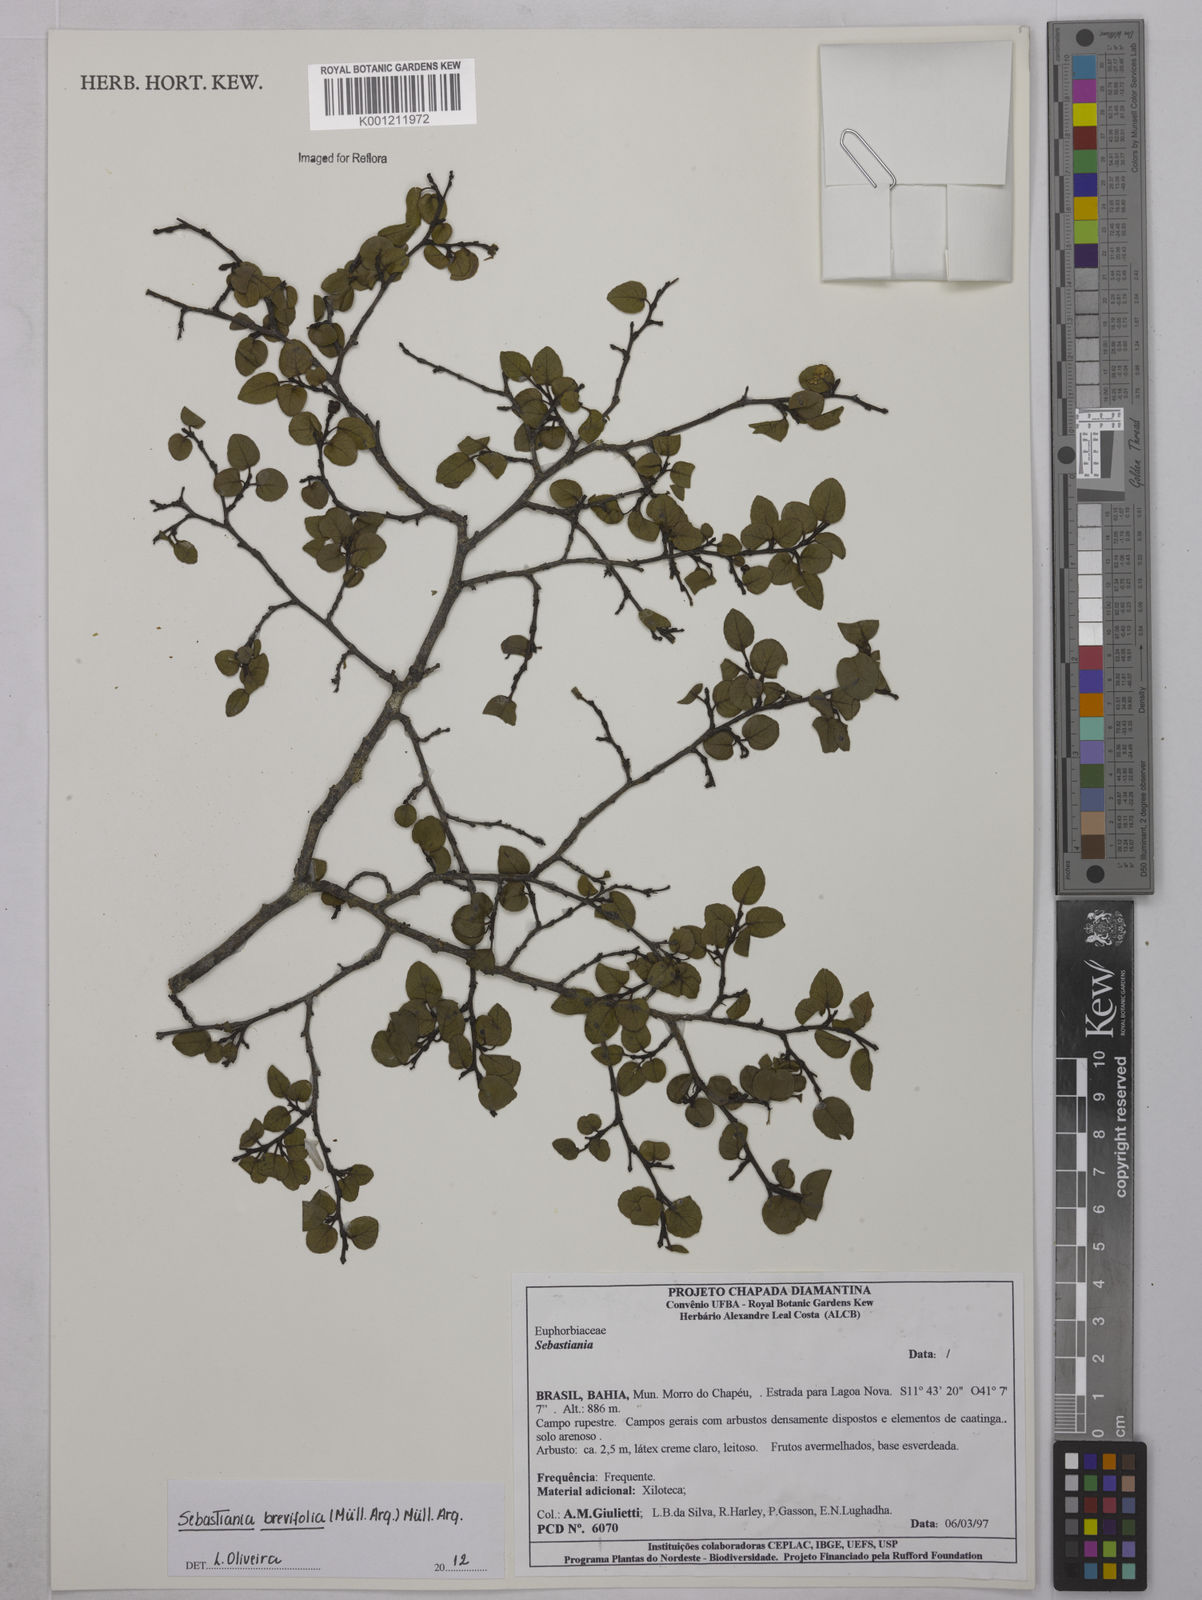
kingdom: Plantae
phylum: Tracheophyta
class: Magnoliopsida
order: Malpighiales
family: Euphorbiaceae
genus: Sebastiania
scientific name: Sebastiania
